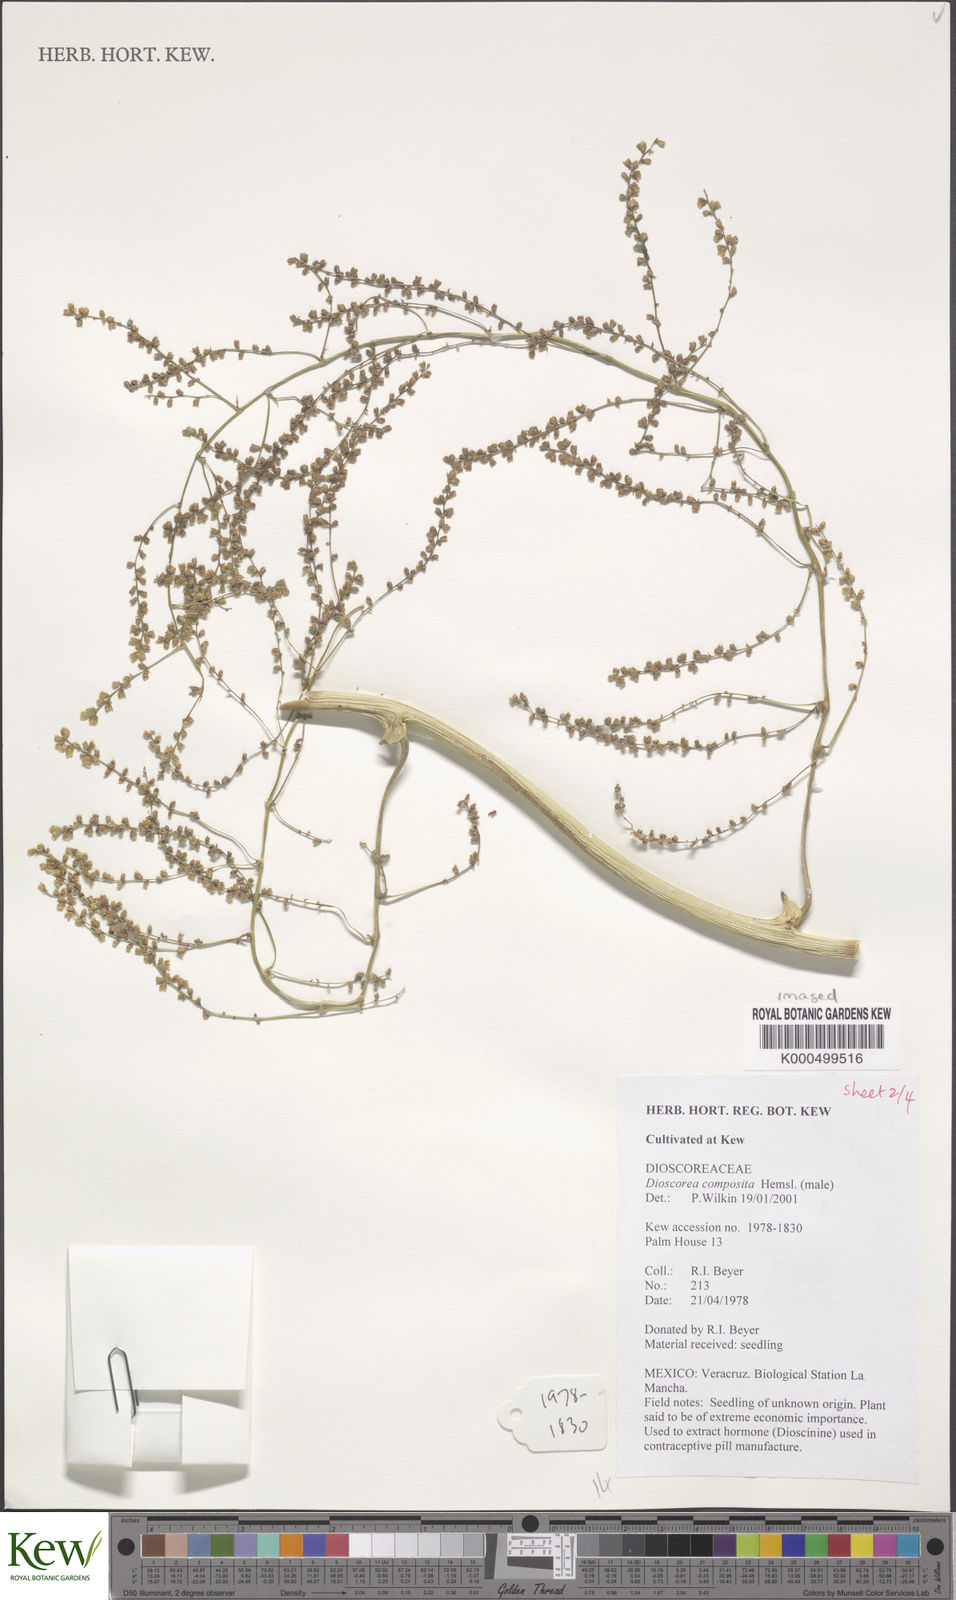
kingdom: Plantae
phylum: Tracheophyta
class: Liliopsida
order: Dioscoreales
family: Dioscoreaceae
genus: Dioscorea
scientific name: Dioscorea composita
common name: Barbasco
